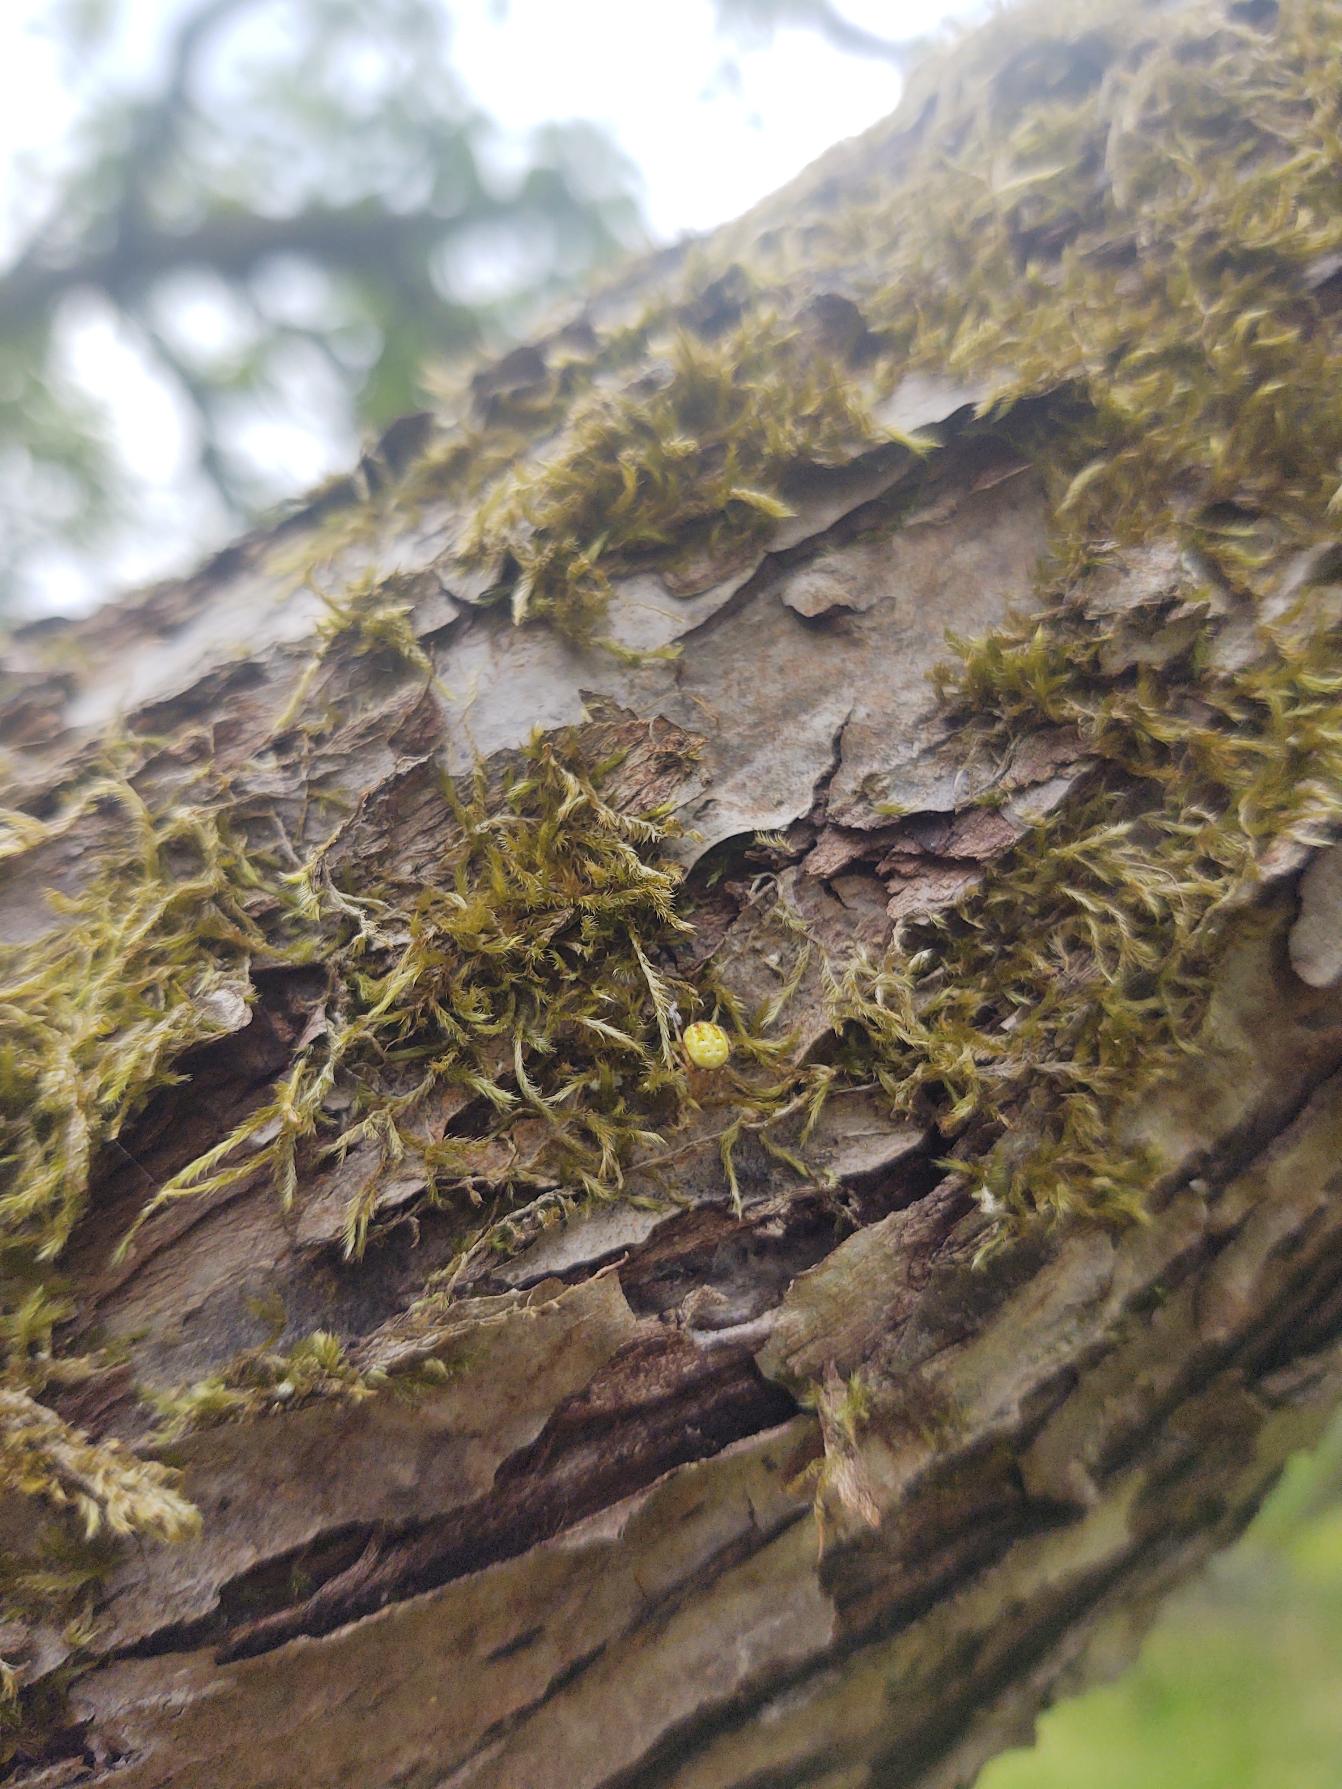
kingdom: Animalia
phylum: Arthropoda
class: Arachnida
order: Araneae
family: Araneidae
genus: Araneus
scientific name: Araneus quadratus
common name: Kvadratedderkop
